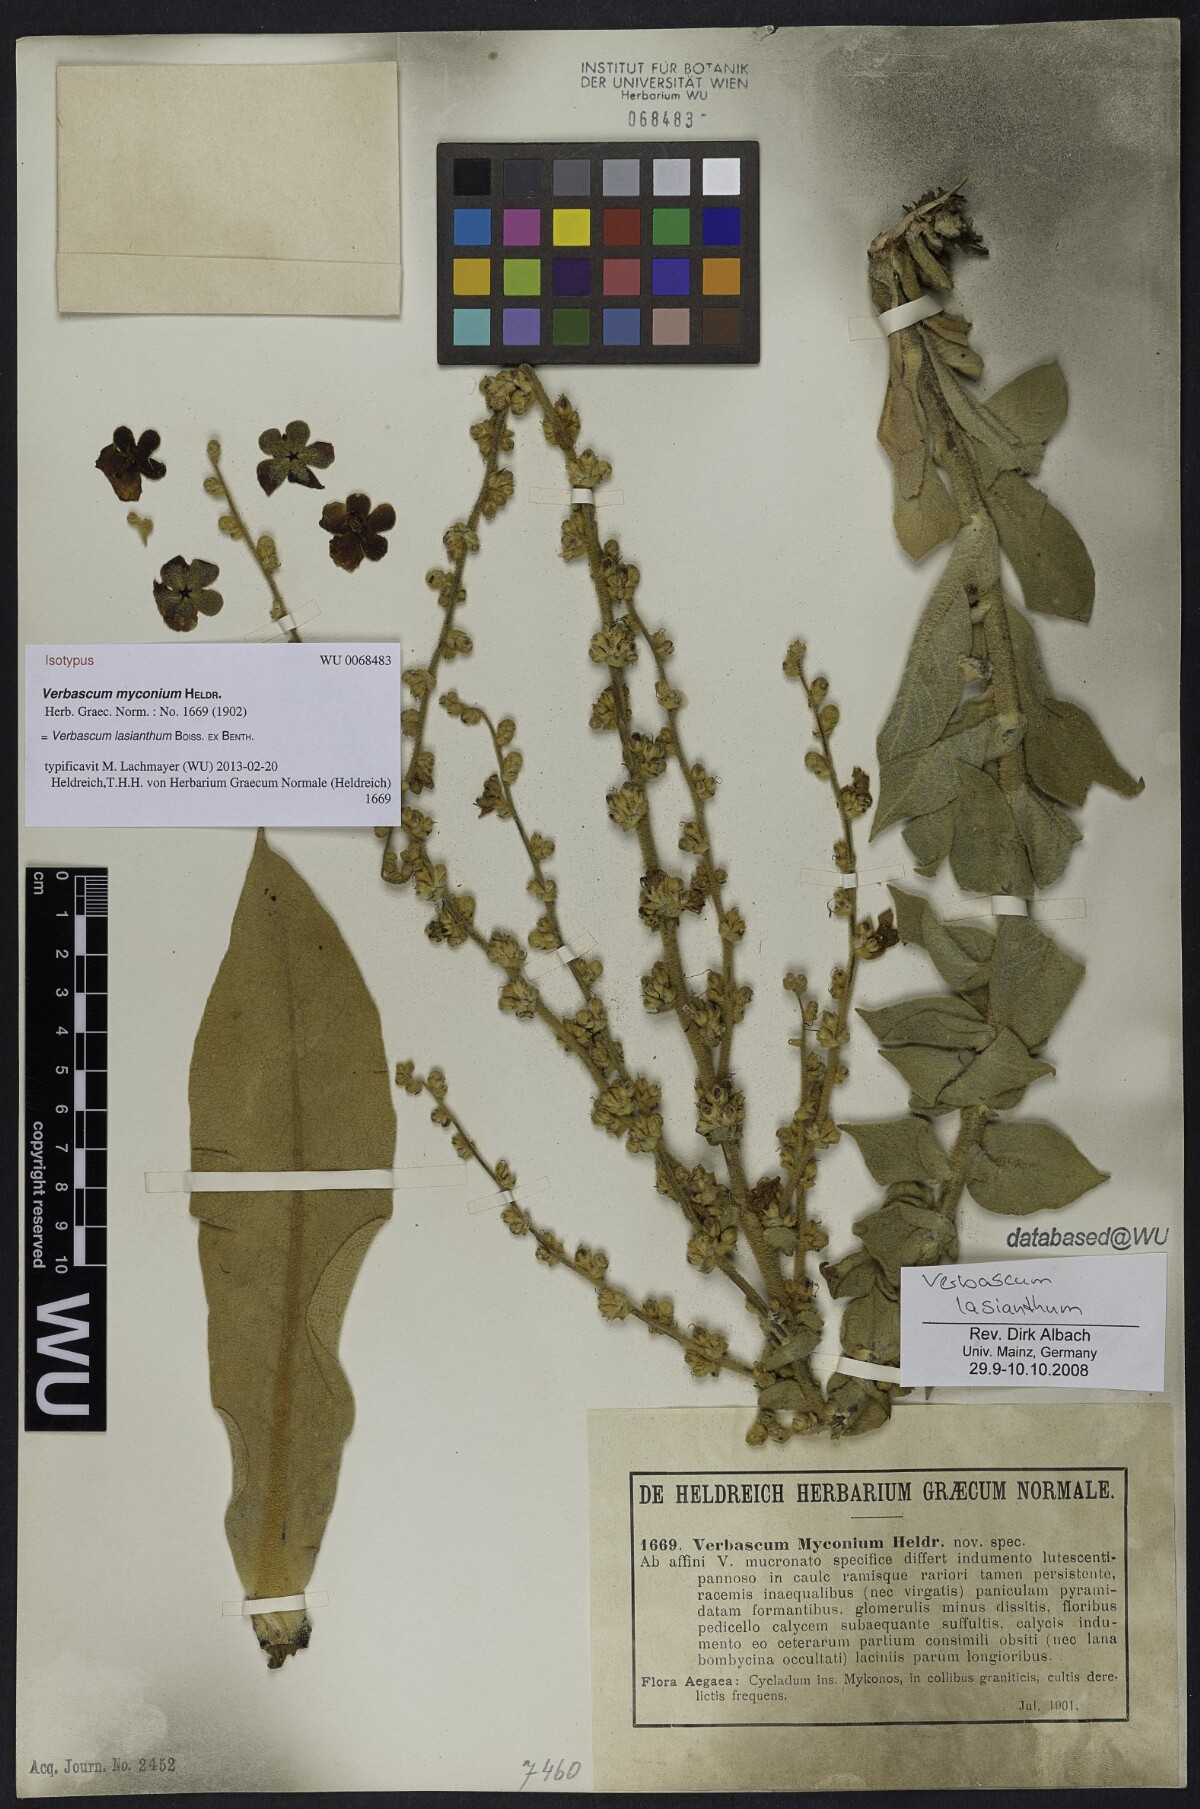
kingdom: Plantae
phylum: Tracheophyta
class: Magnoliopsida
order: Lamiales
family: Scrophulariaceae
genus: Verbascum
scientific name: Verbascum lasianthum
